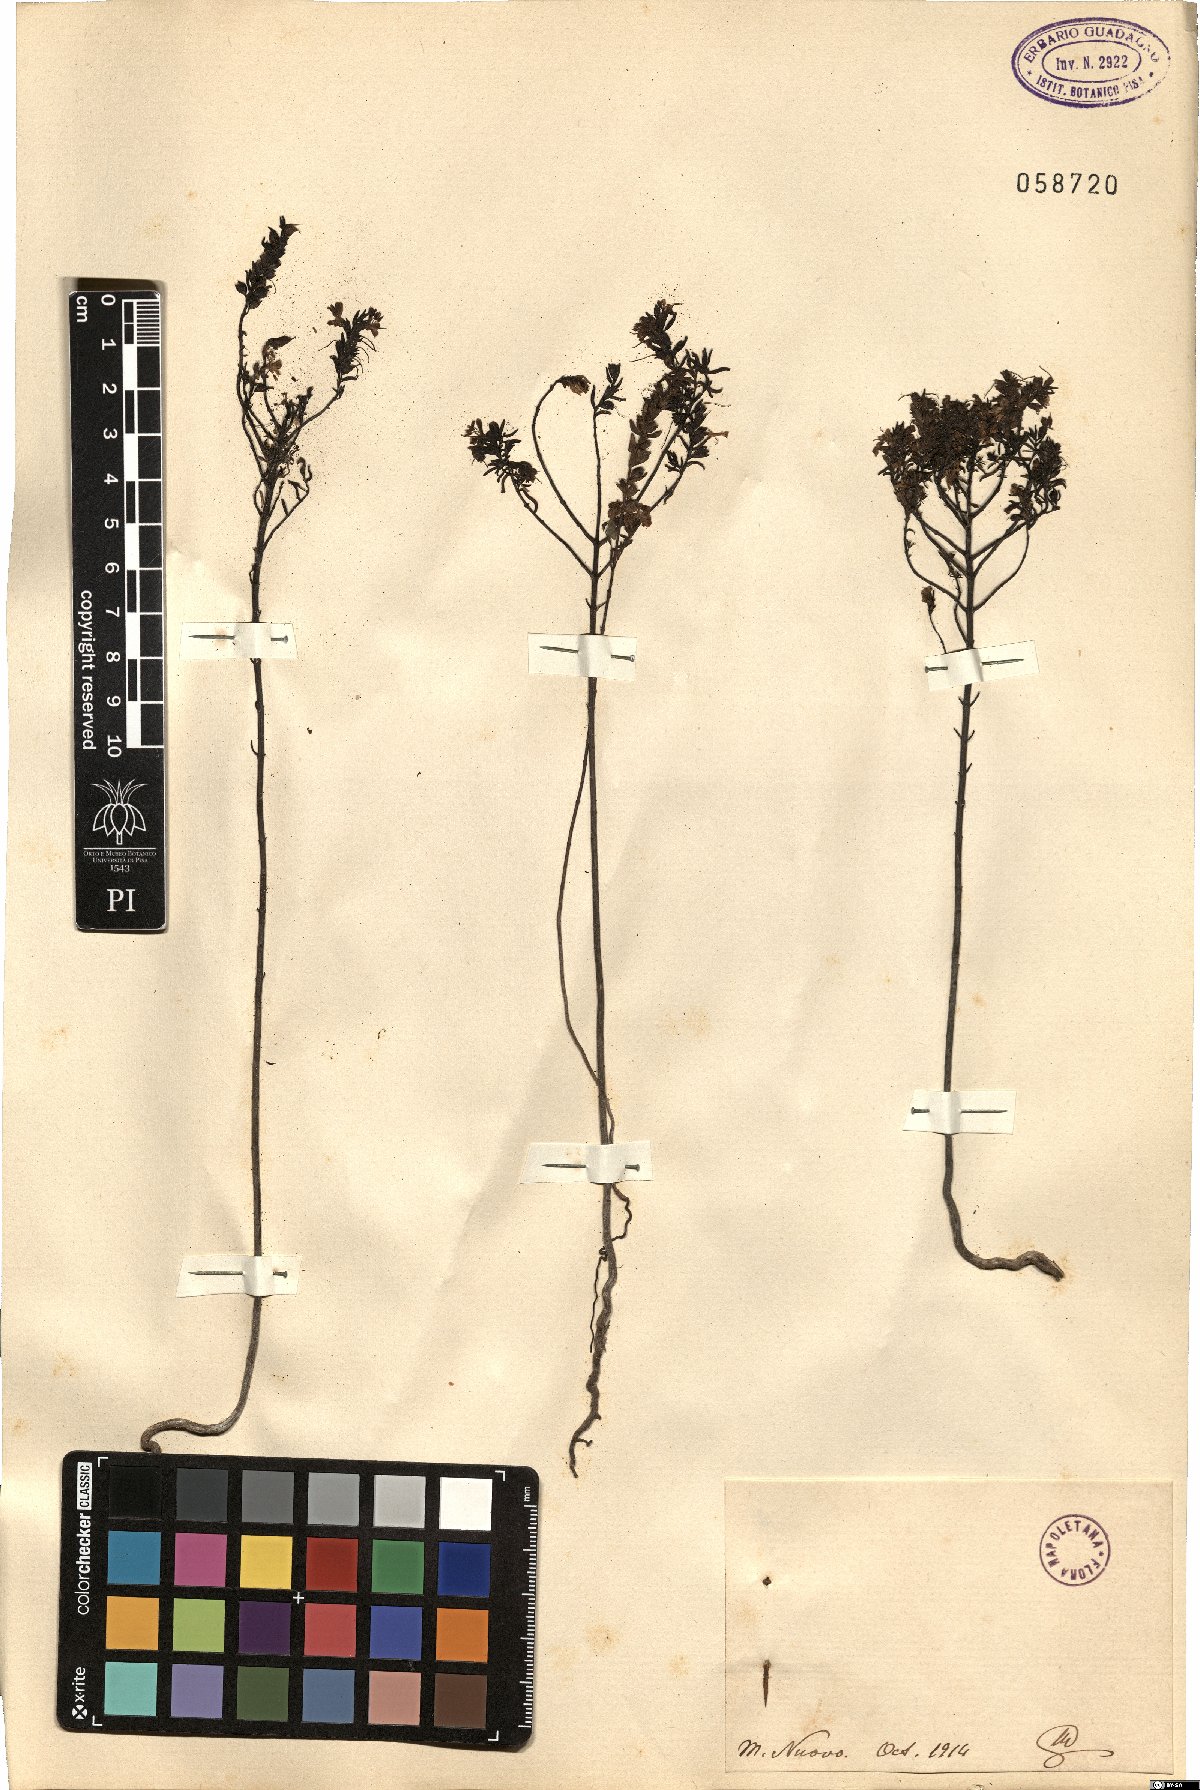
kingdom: Plantae
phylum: Tracheophyta
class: Magnoliopsida
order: Lamiales
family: Orobanchaceae
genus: Bartsia
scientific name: Bartsia
